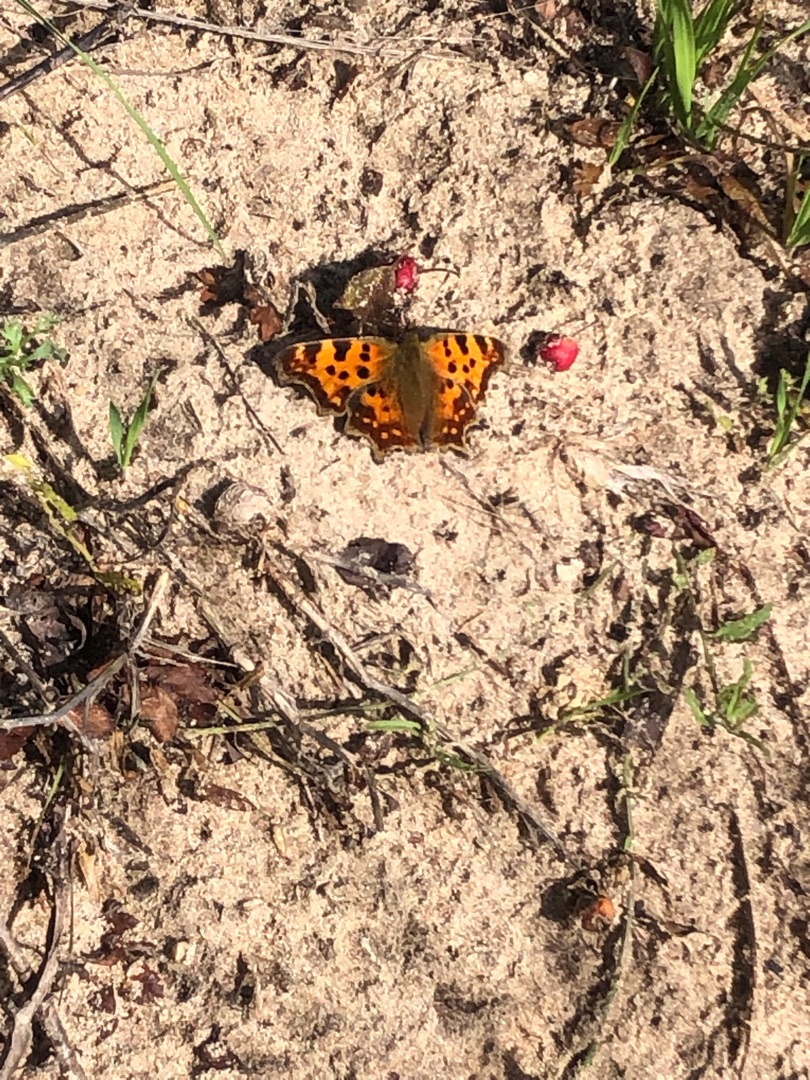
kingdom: Animalia
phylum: Arthropoda
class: Insecta
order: Lepidoptera
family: Nymphalidae
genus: Polygonia
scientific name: Polygonia c-album
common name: Det hvide C
